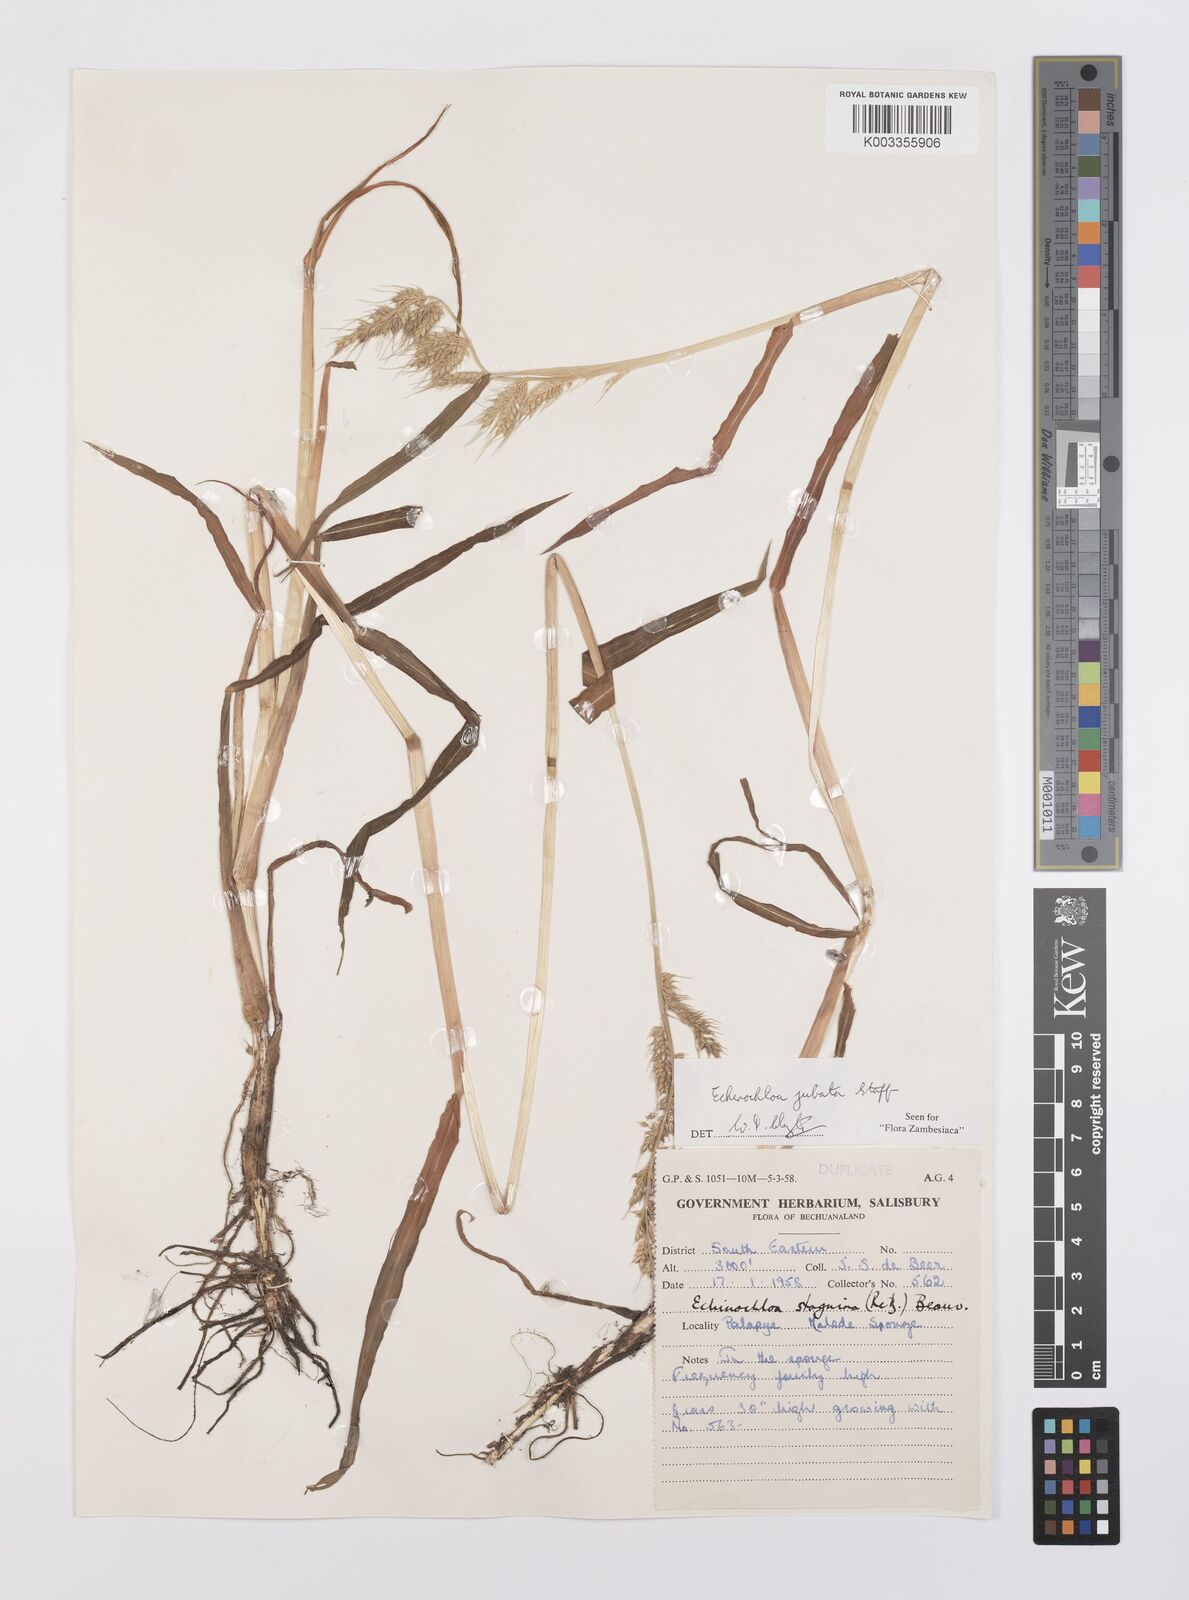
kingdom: Plantae
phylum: Tracheophyta
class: Liliopsida
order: Poales
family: Poaceae
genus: Echinochloa
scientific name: Echinochloa jubata
